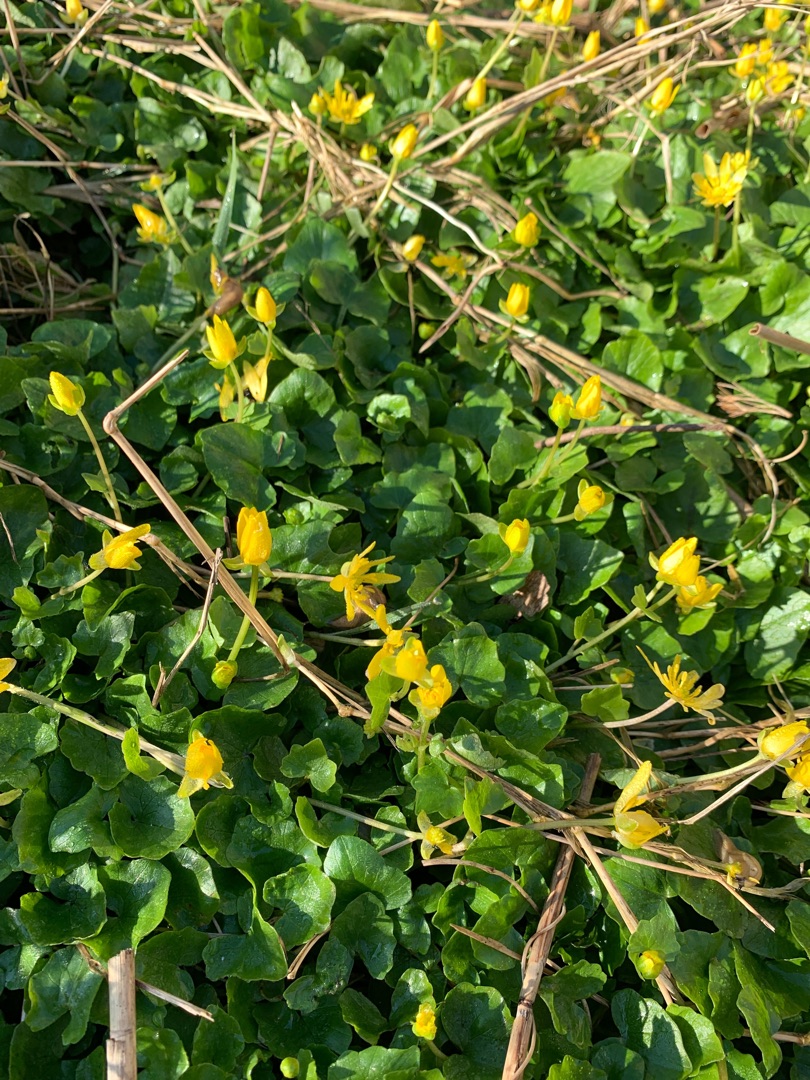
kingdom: Plantae
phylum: Tracheophyta
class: Magnoliopsida
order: Ranunculales
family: Ranunculaceae
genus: Ficaria
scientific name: Ficaria verna
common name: Vorterod
